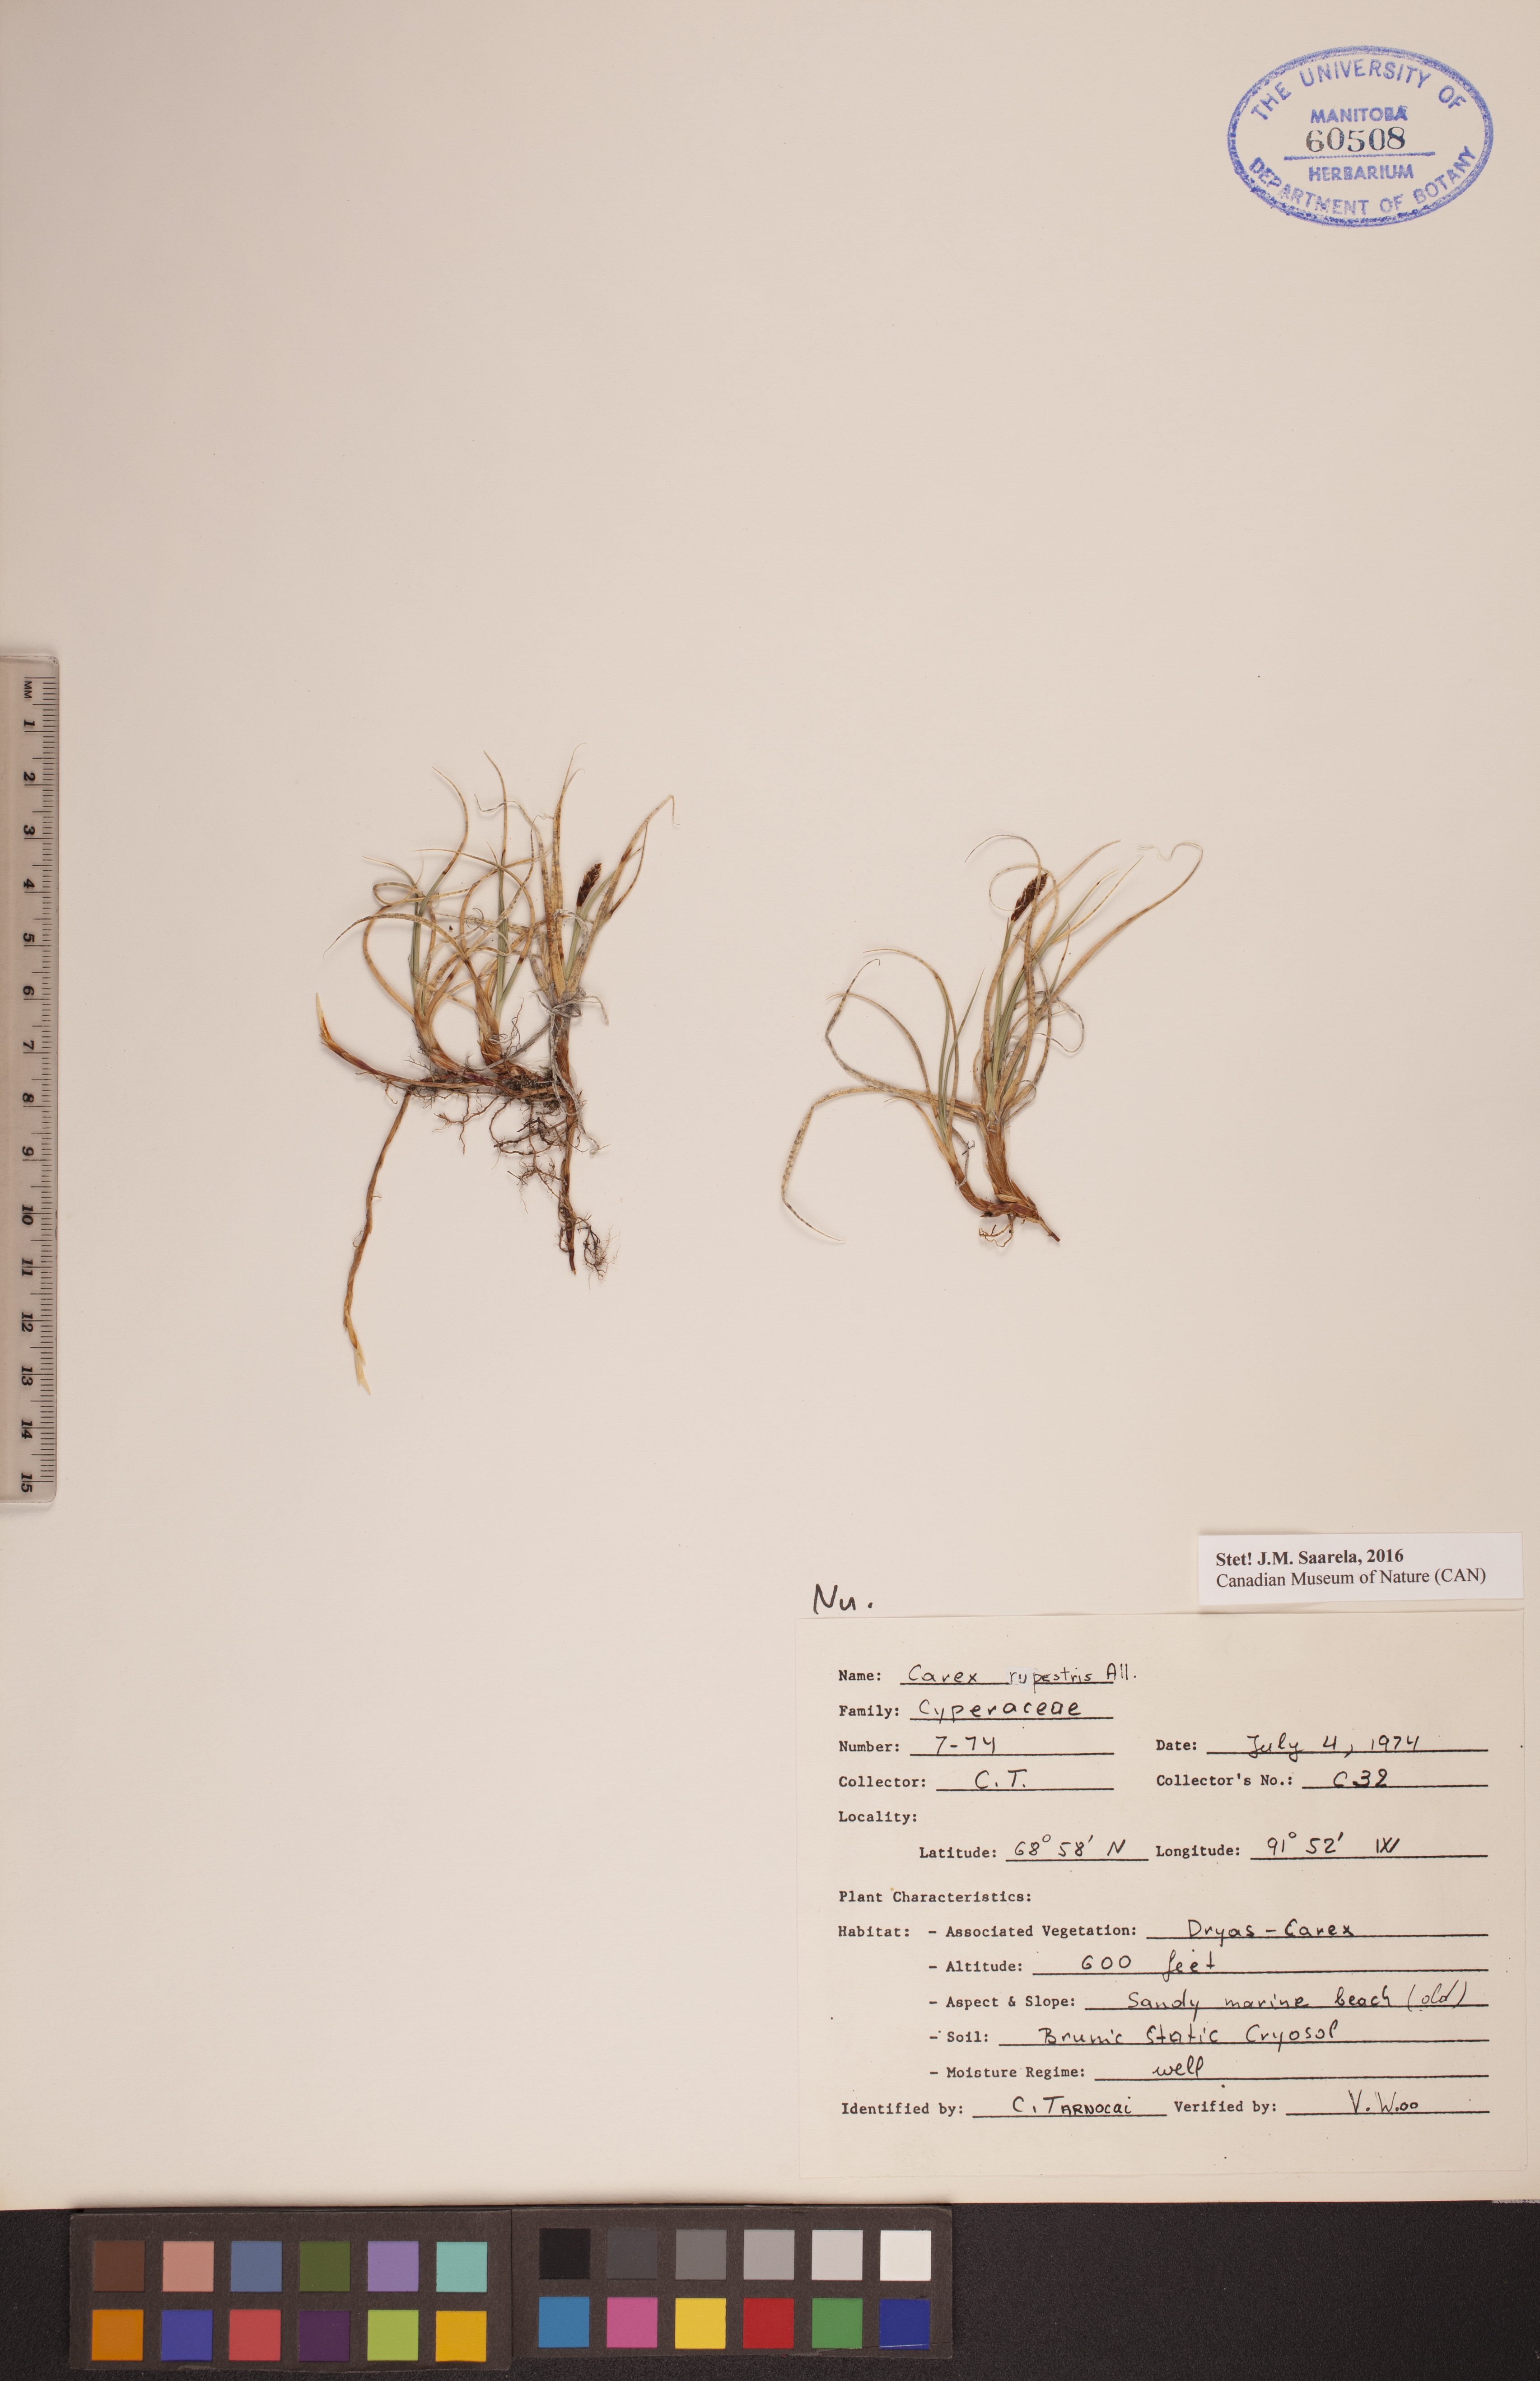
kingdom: Plantae
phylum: Tracheophyta
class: Liliopsida
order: Poales
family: Cyperaceae
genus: Carex
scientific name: Carex rupestris
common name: Rock sedge
